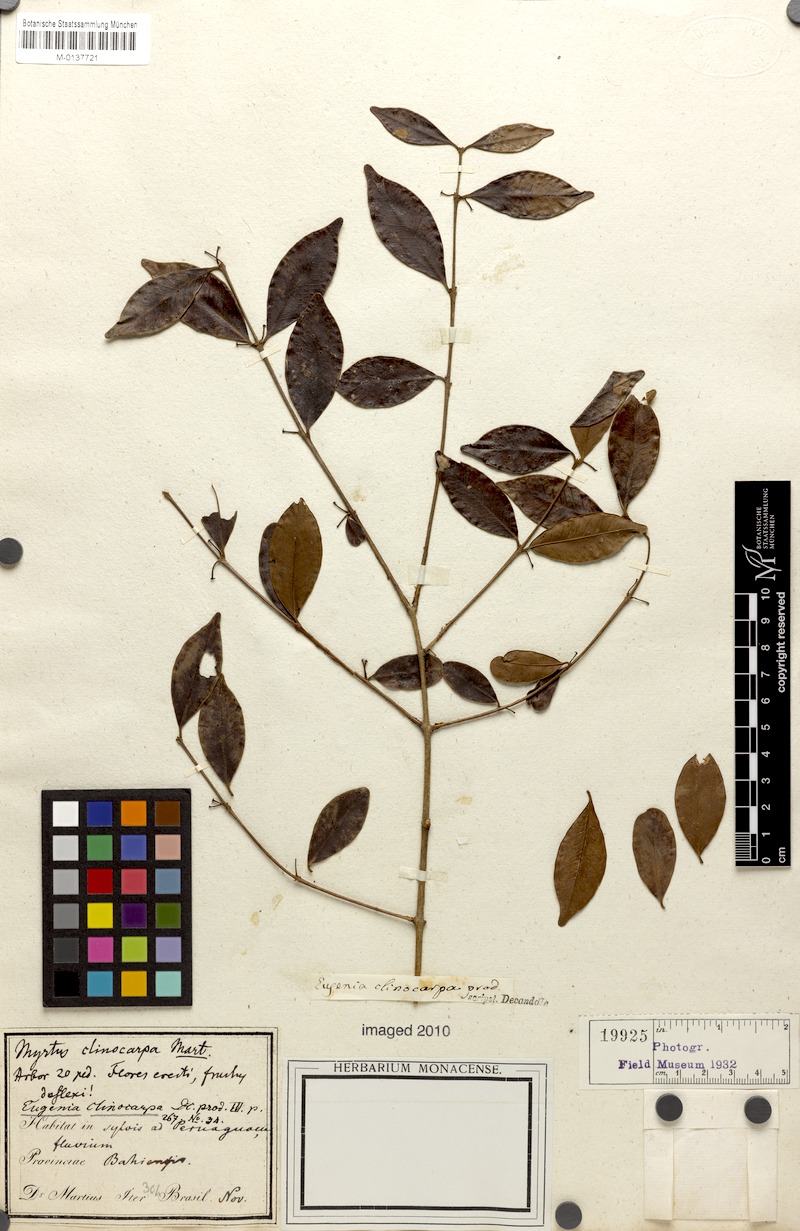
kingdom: Plantae
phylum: Tracheophyta
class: Magnoliopsida
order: Myrtales
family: Myrtaceae
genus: Eugenia
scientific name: Eugenia punicifolia
